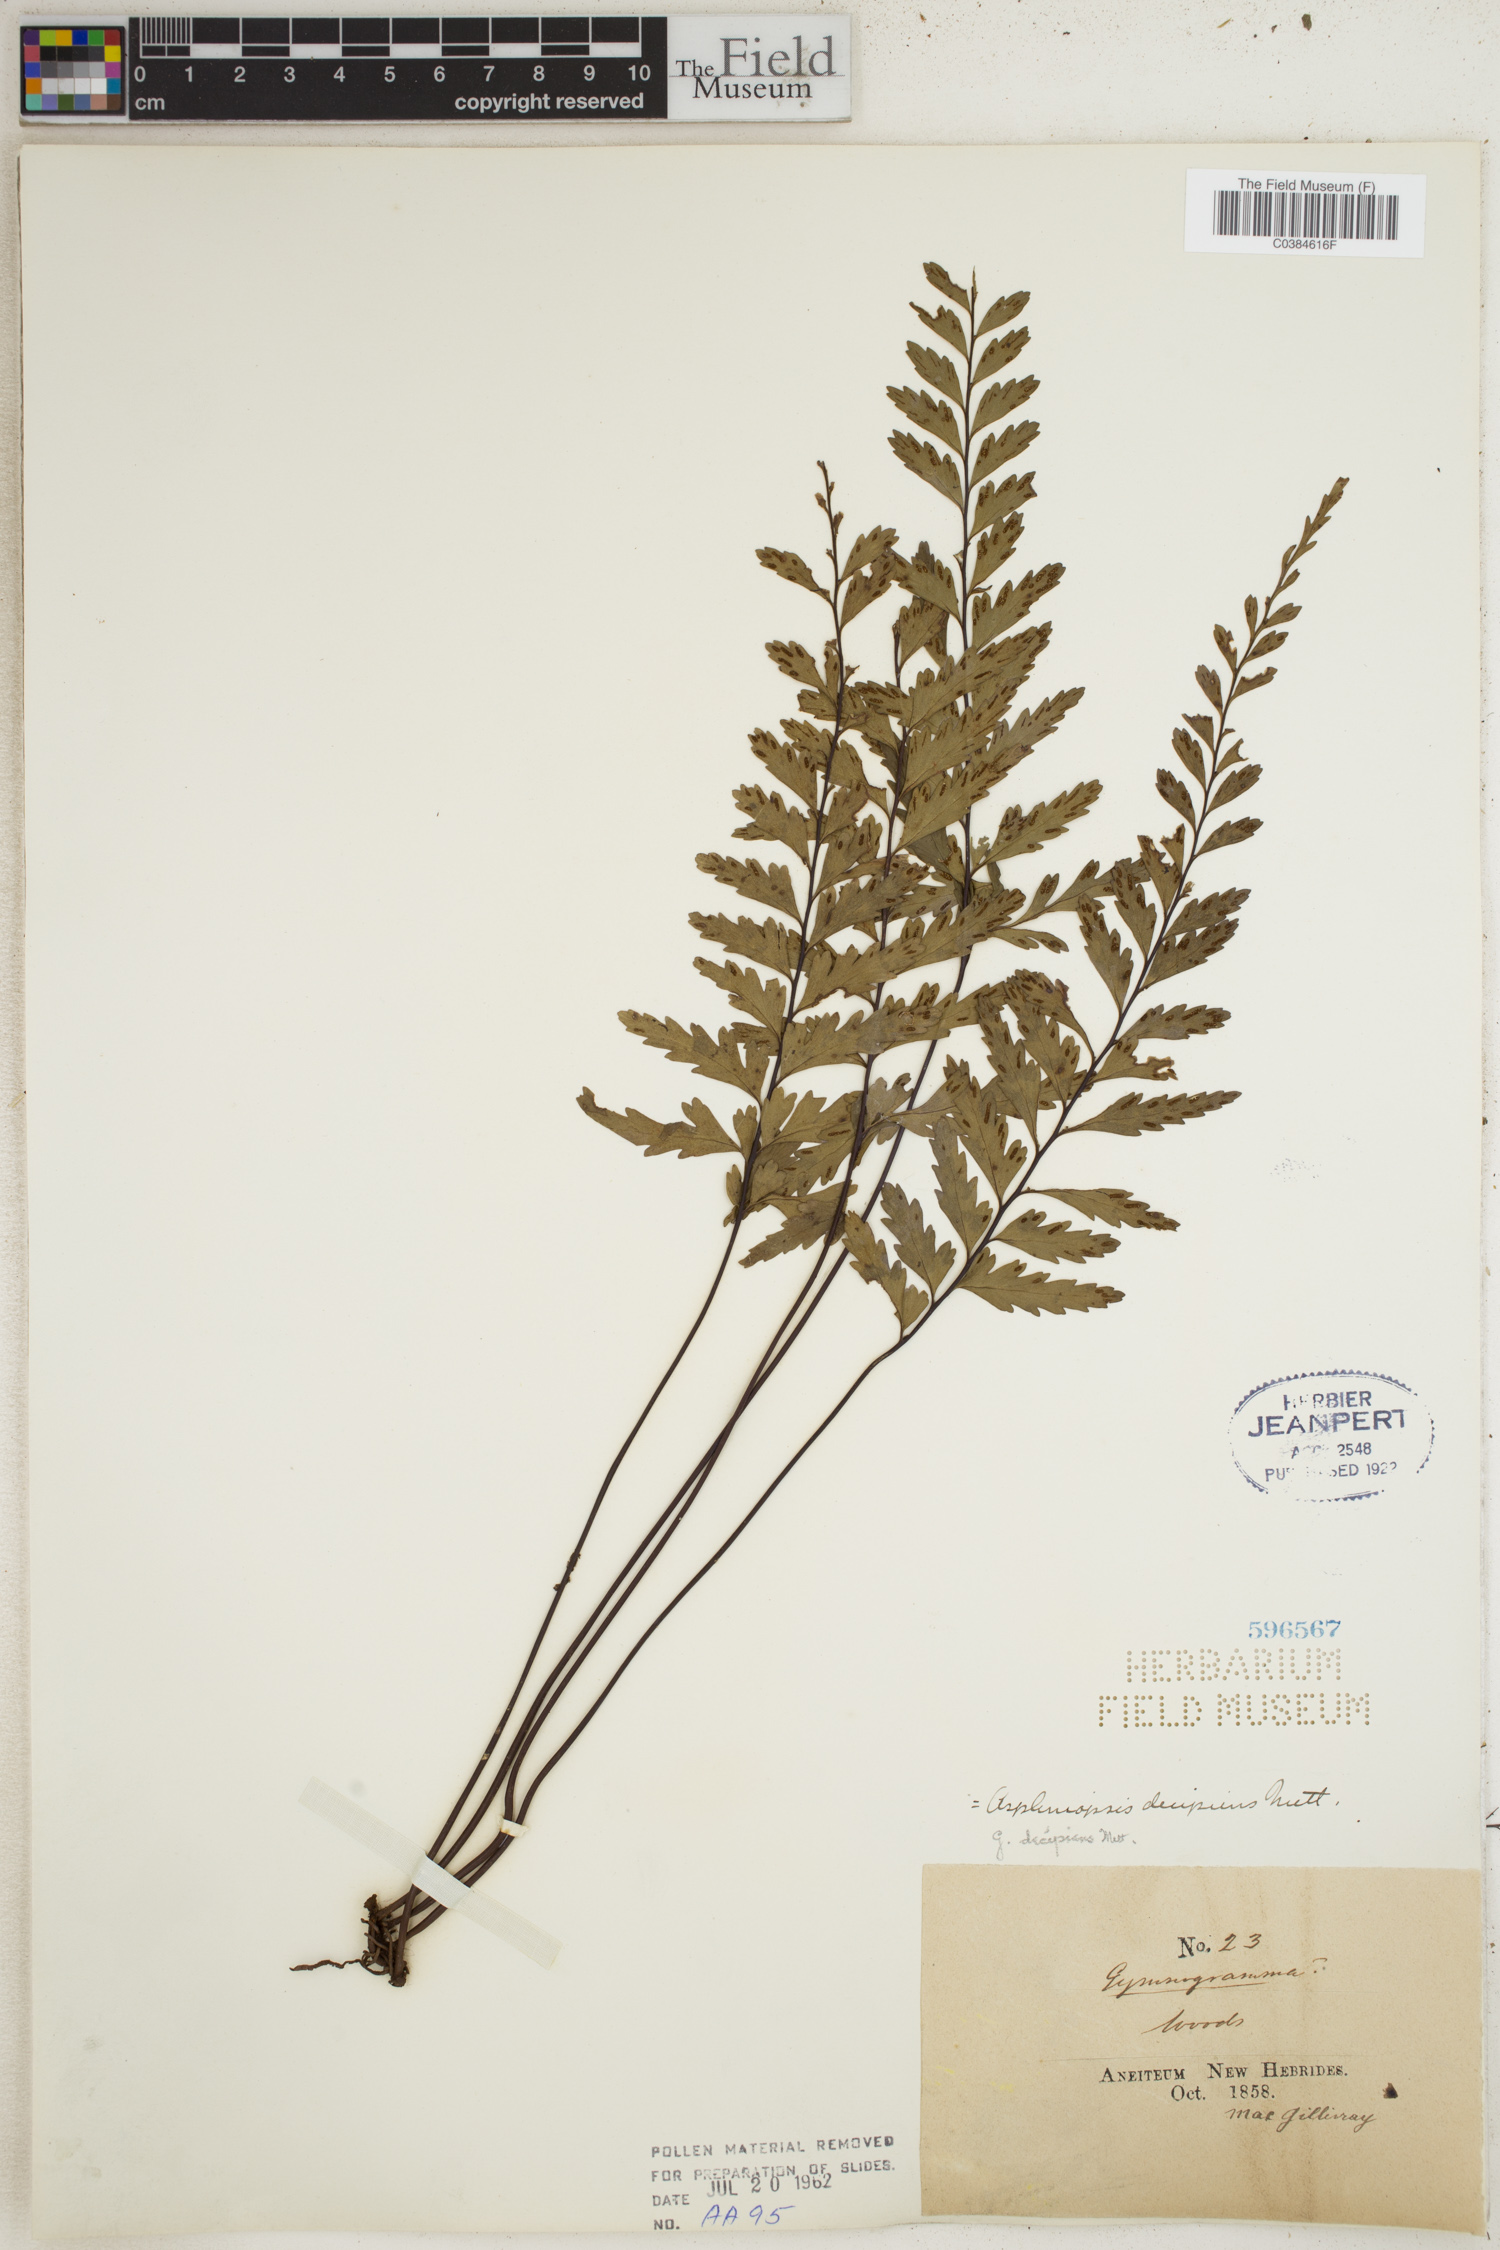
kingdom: Plantae
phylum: Tracheophyta
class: Polypodiopsida
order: Polypodiales
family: Pteridaceae
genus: Austrogramme
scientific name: Austrogramme decipiens
